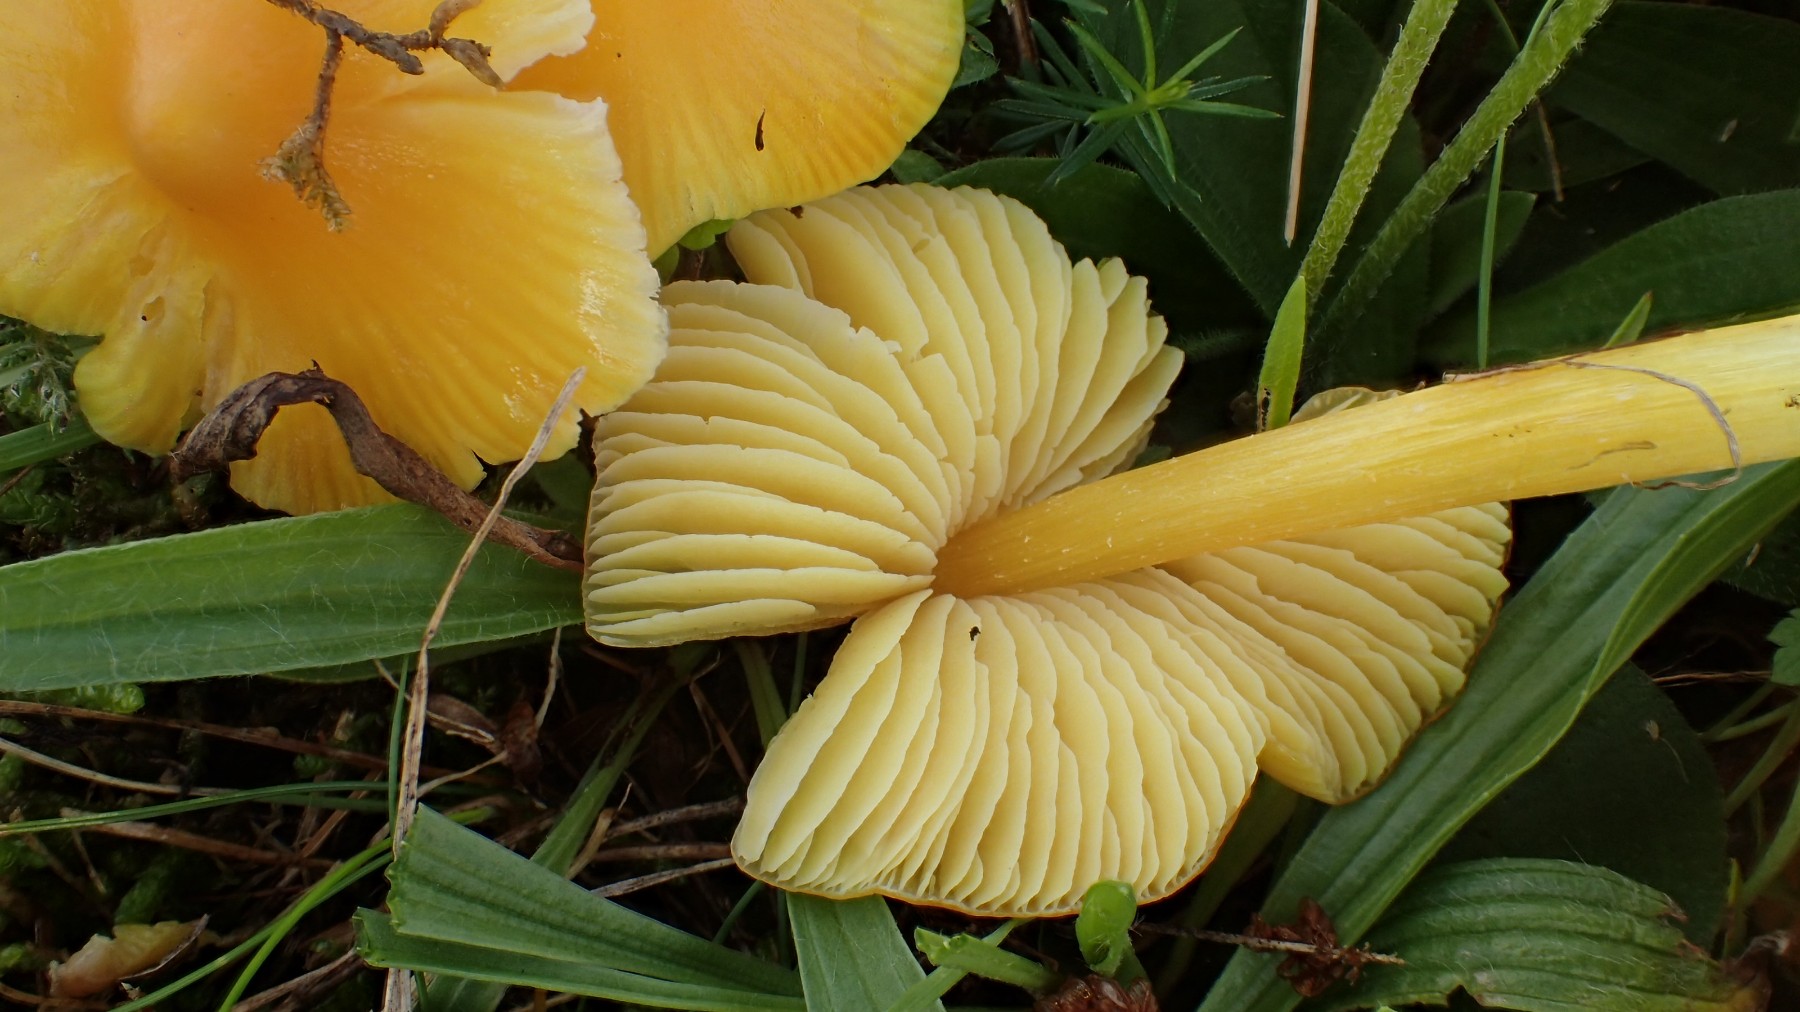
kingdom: Fungi
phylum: Basidiomycota
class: Agaricomycetes
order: Agaricales
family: Hygrophoraceae
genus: Hygrocybe
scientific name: Hygrocybe acutoconica
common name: Konrads vokshat
